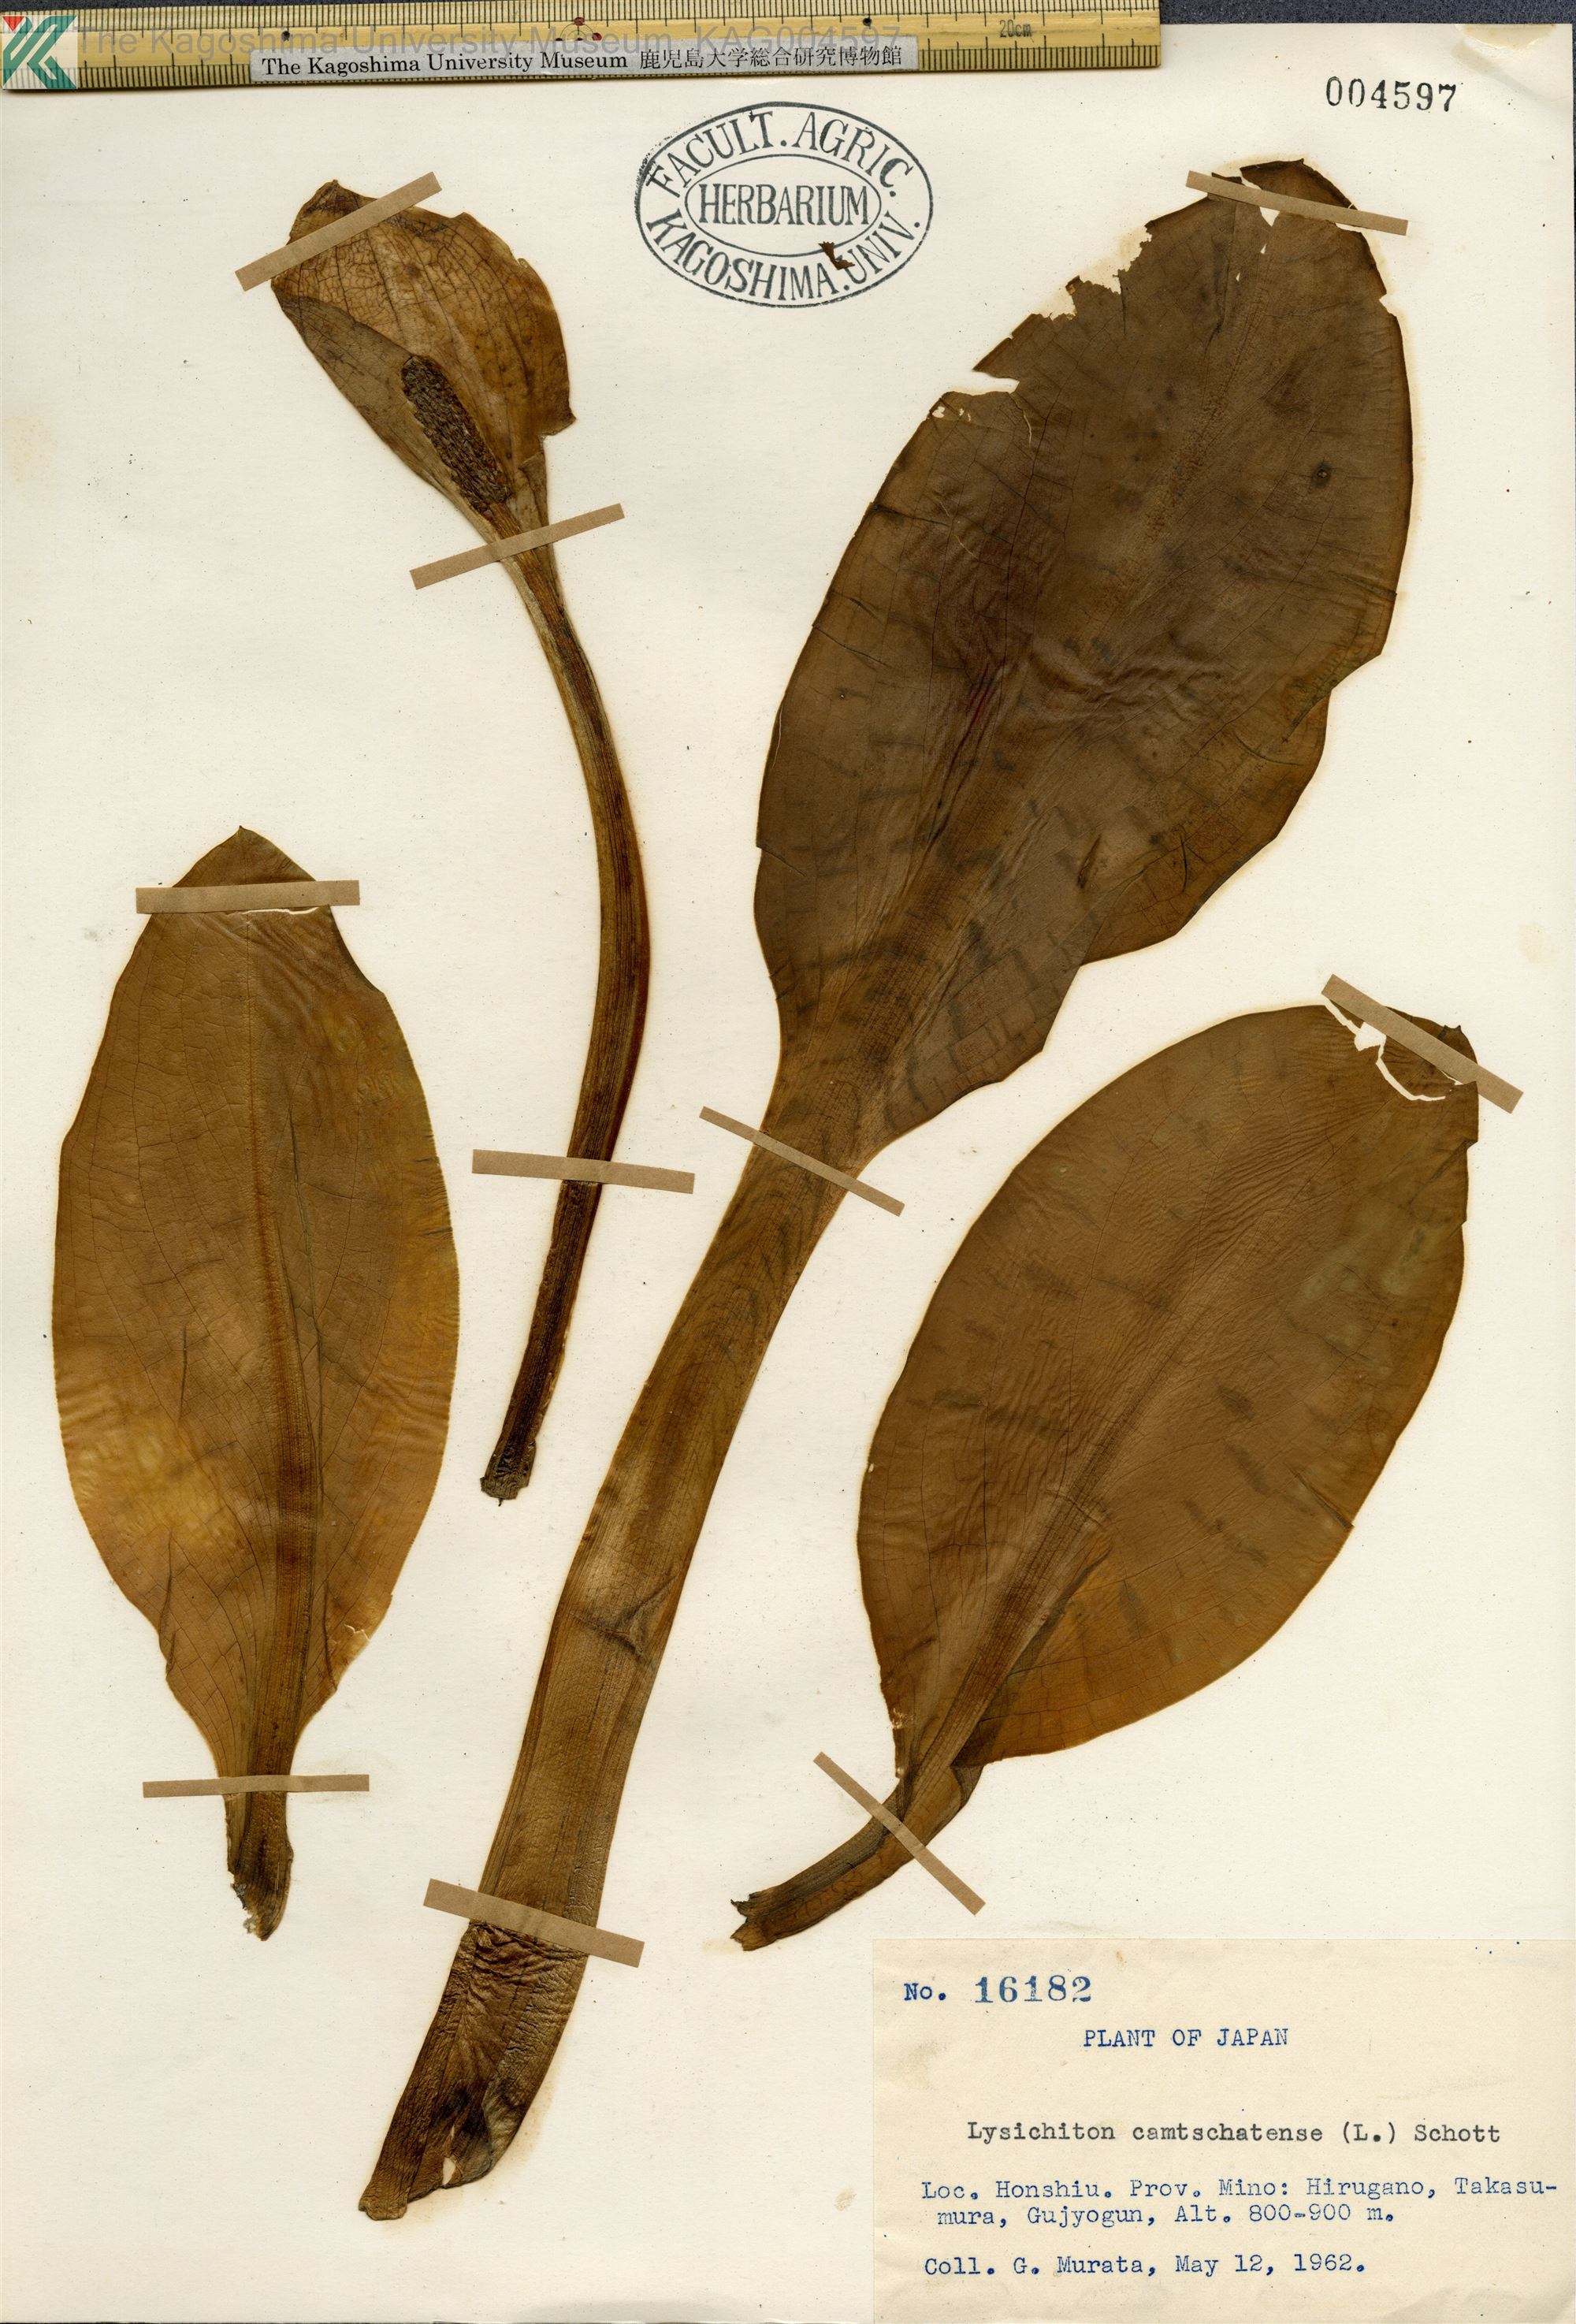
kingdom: Plantae
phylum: Tracheophyta
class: Liliopsida
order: Alismatales
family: Araceae
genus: Lysichiton
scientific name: Lysichiton camtschatcensis
